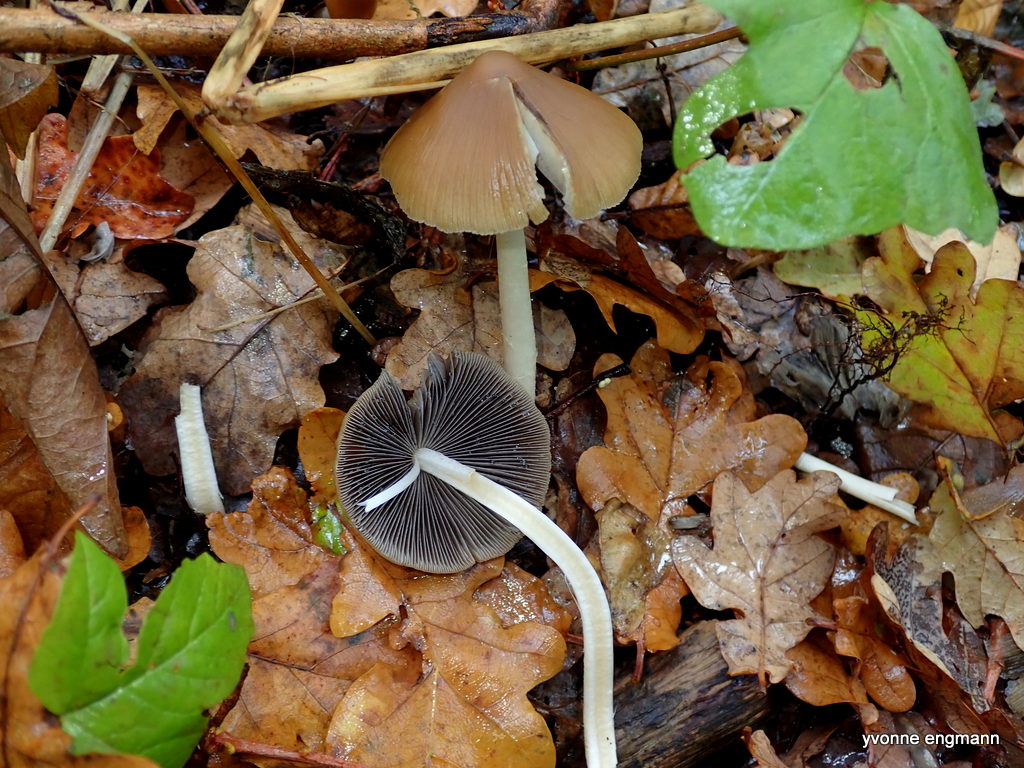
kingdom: Fungi
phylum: Basidiomycota
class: Agaricomycetes
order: Agaricales
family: Psathyrellaceae
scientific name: Psathyrellaceae
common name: mørkhatfamilien
